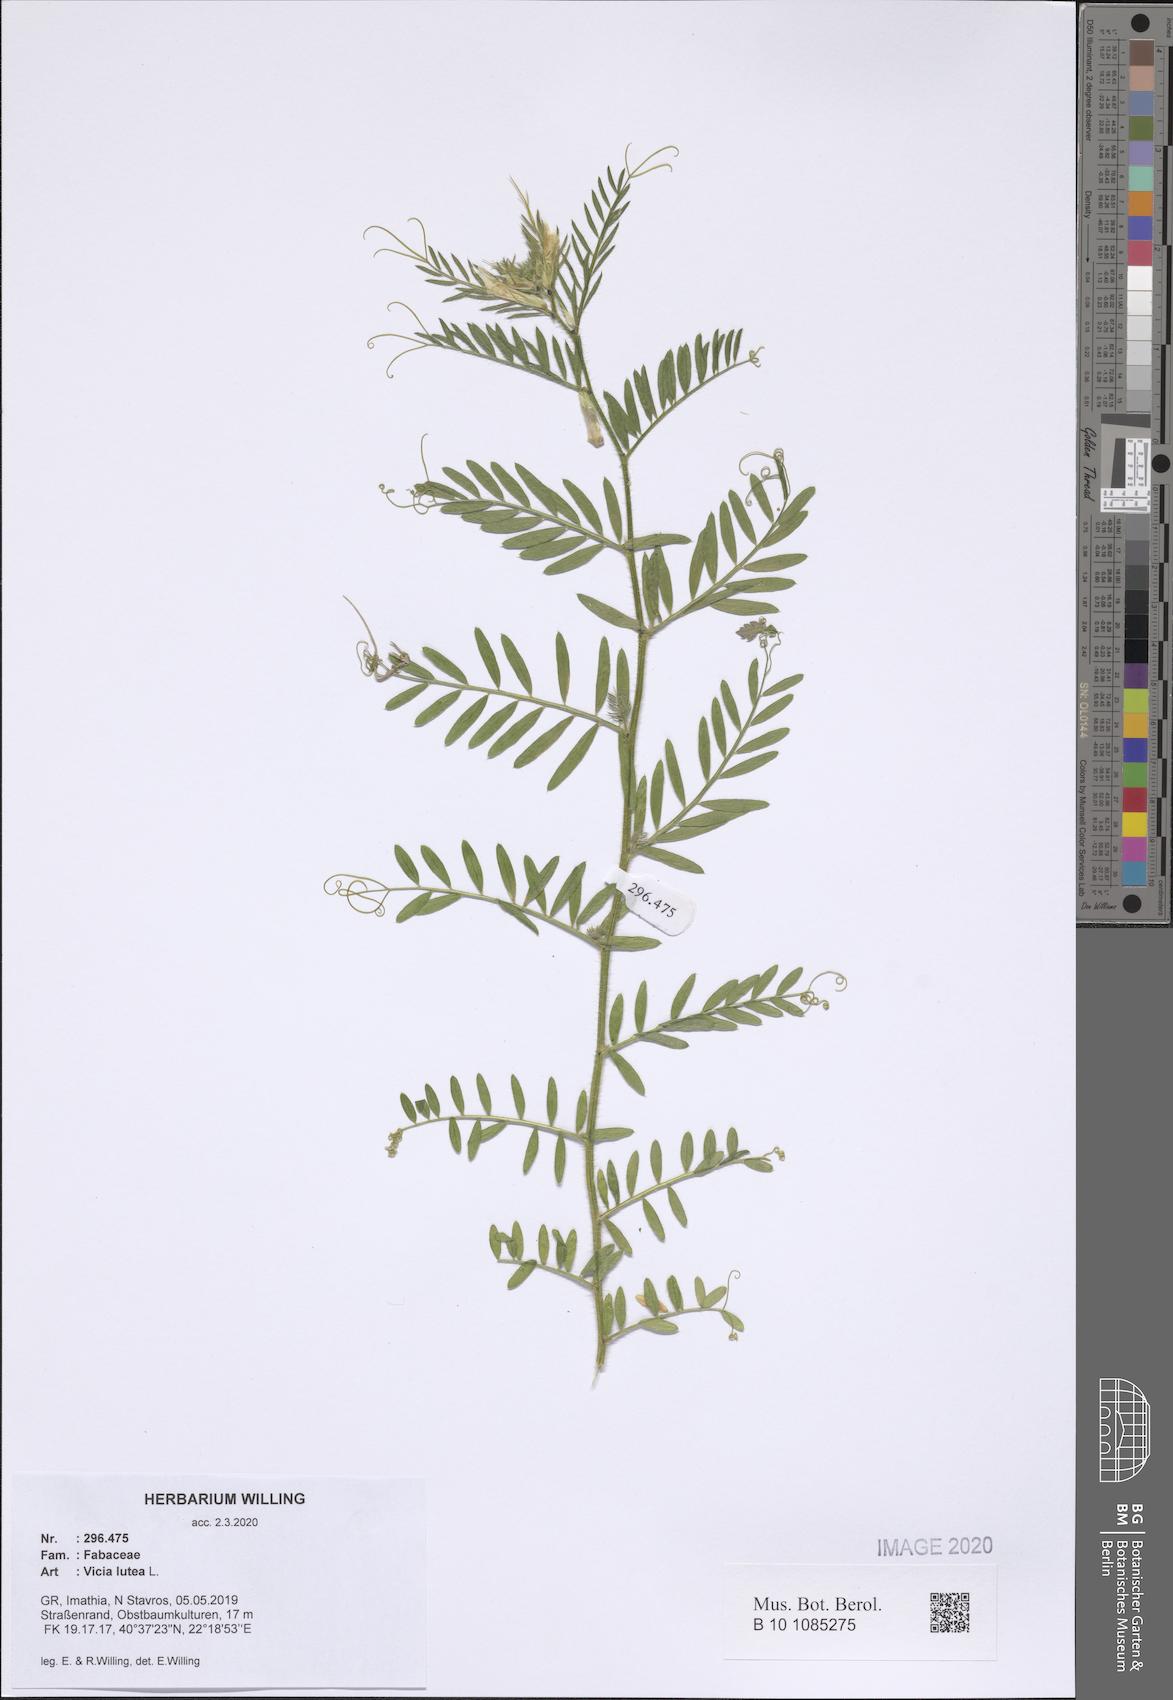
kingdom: Plantae
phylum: Tracheophyta
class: Magnoliopsida
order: Fabales
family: Fabaceae
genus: Vicia
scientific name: Vicia lutea
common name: Smooth yellow vetch
